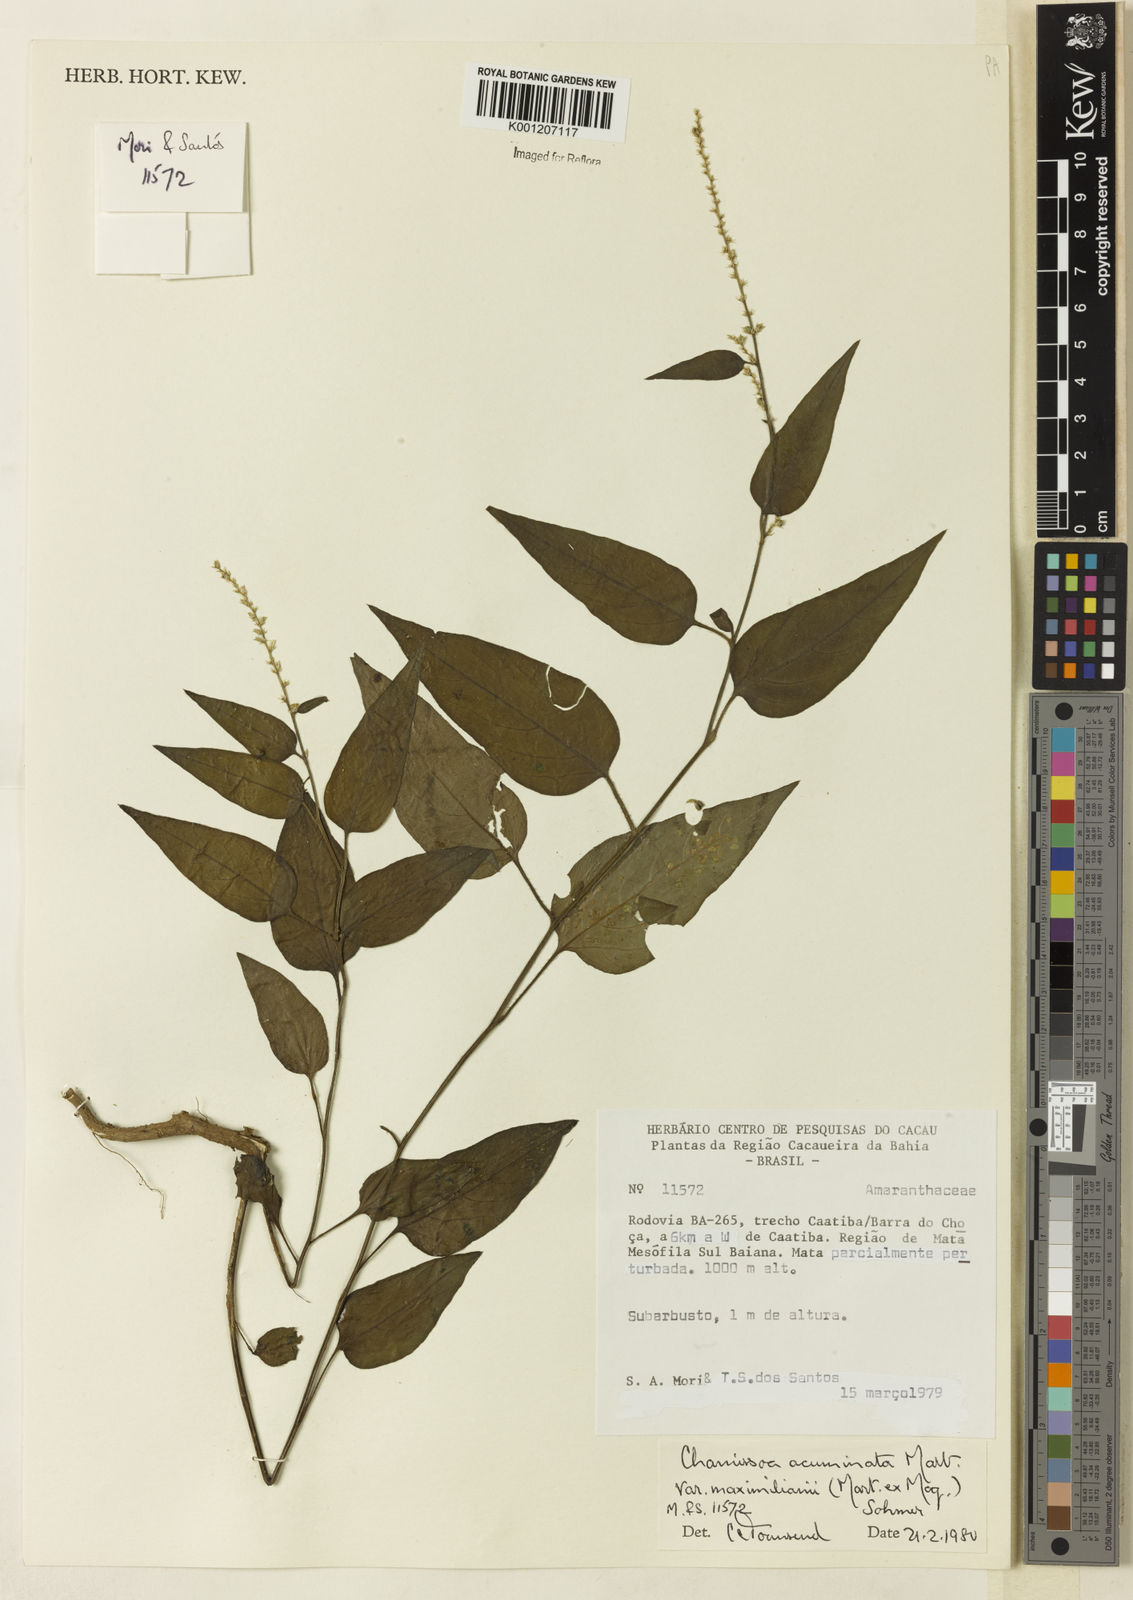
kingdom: Plantae
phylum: Tracheophyta
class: Magnoliopsida
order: Caryophyllales
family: Amaranthaceae
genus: Chamissoa
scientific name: Chamissoa maximiliani
